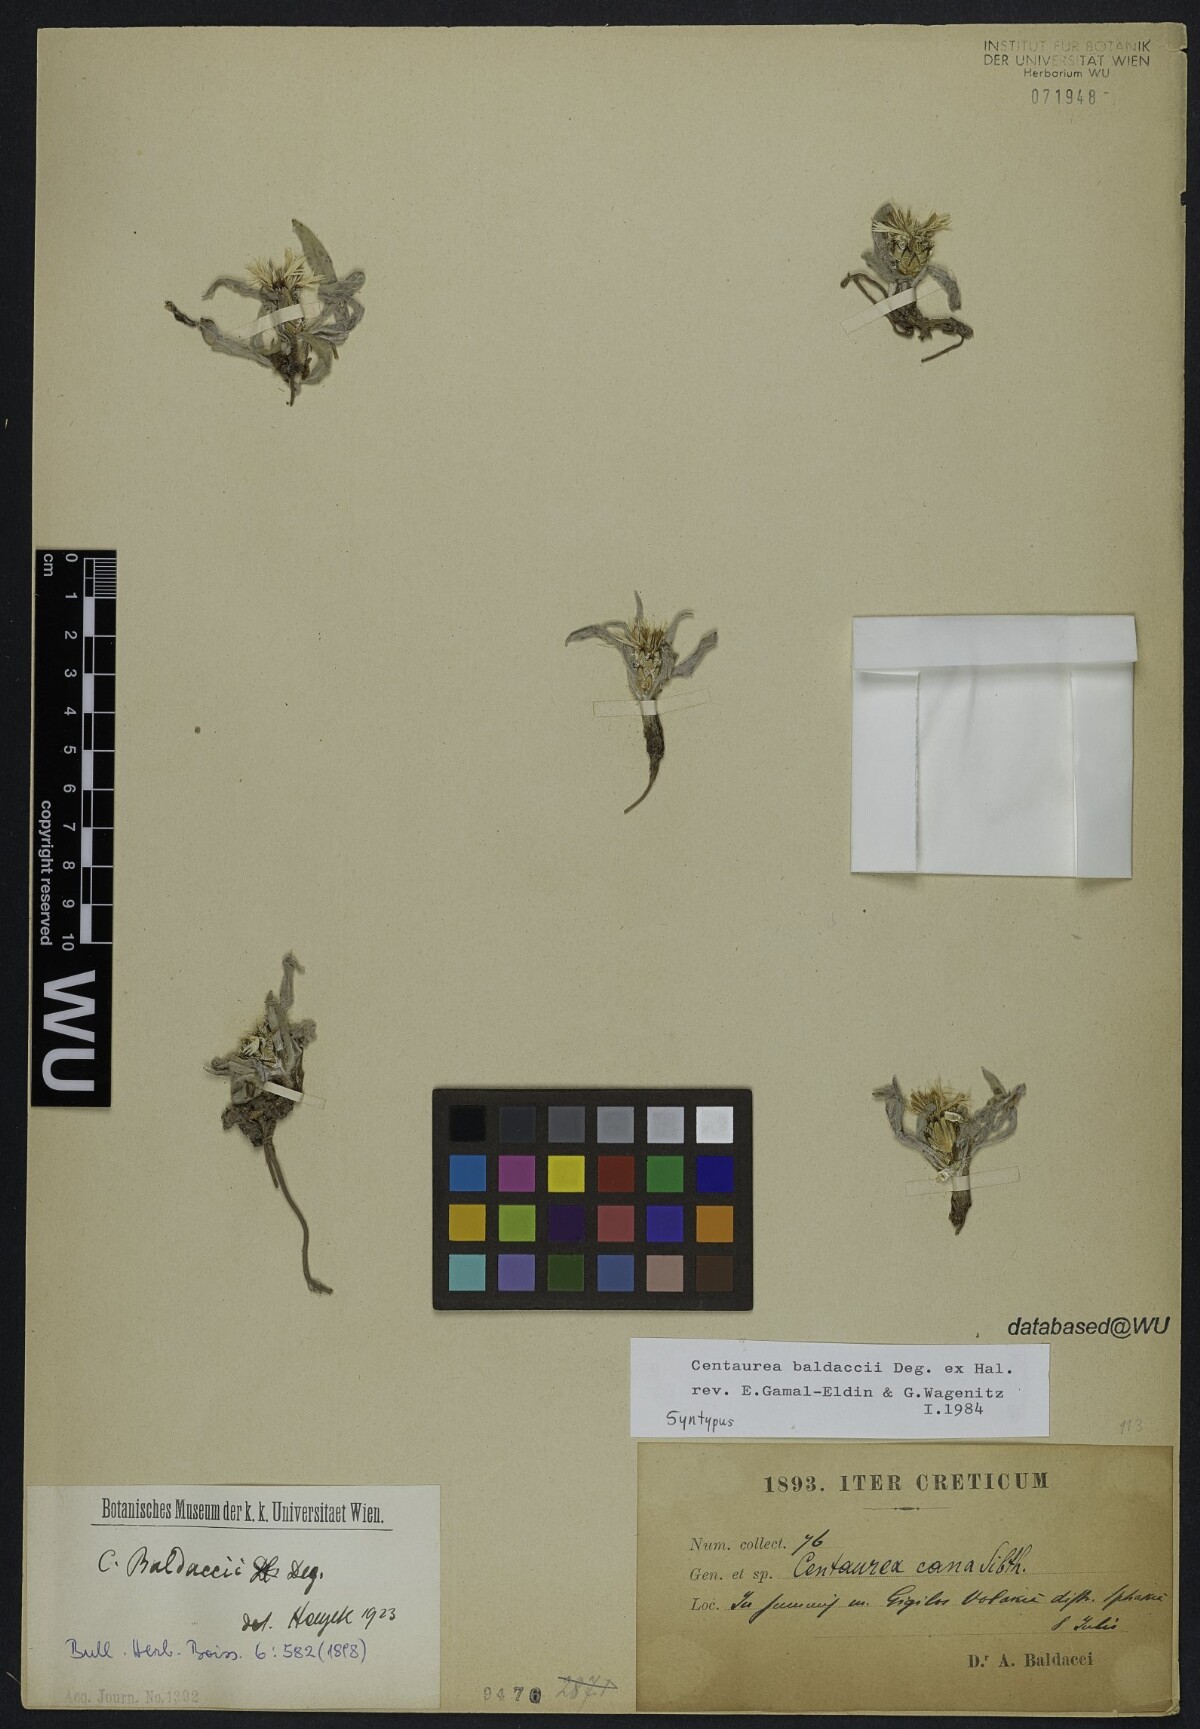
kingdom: Plantae
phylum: Tracheophyta
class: Magnoliopsida
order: Asterales
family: Asteraceae
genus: Centaurea
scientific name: Centaurea baldaccii
